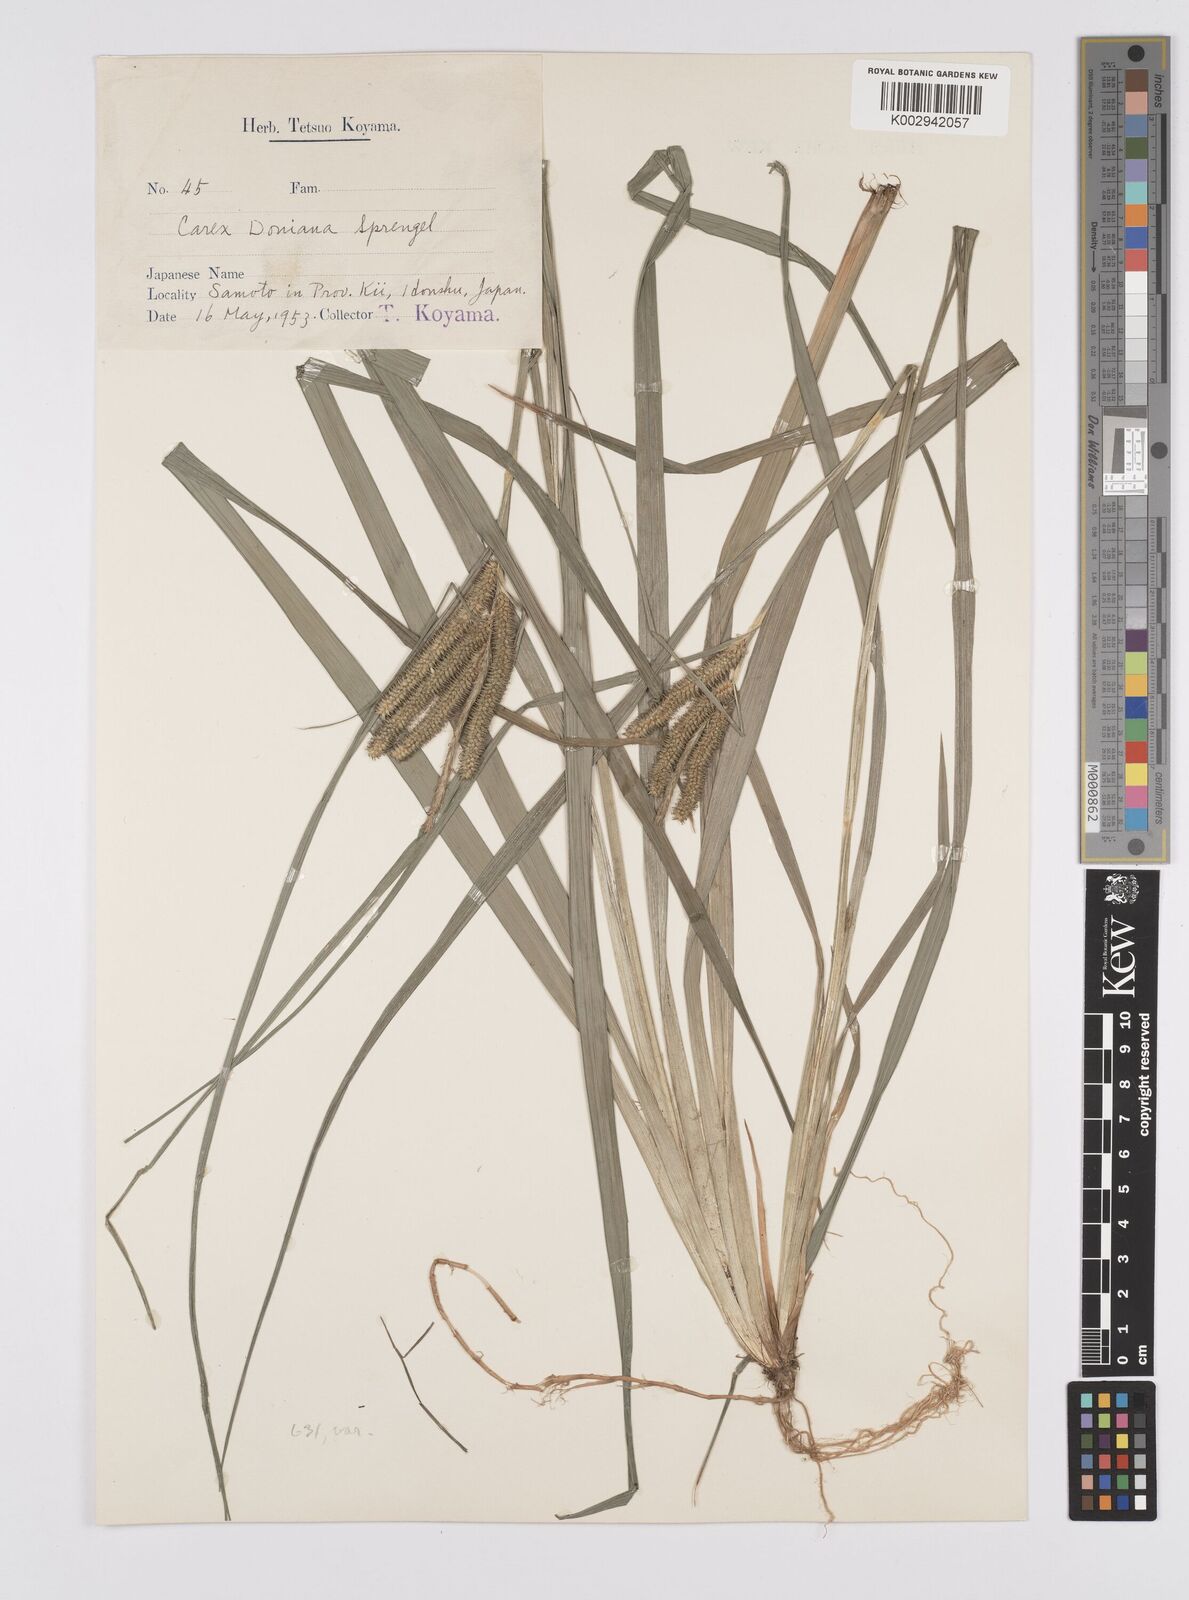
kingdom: Plantae
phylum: Tracheophyta
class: Liliopsida
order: Poales
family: Cyperaceae
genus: Carex
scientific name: Carex japonica
